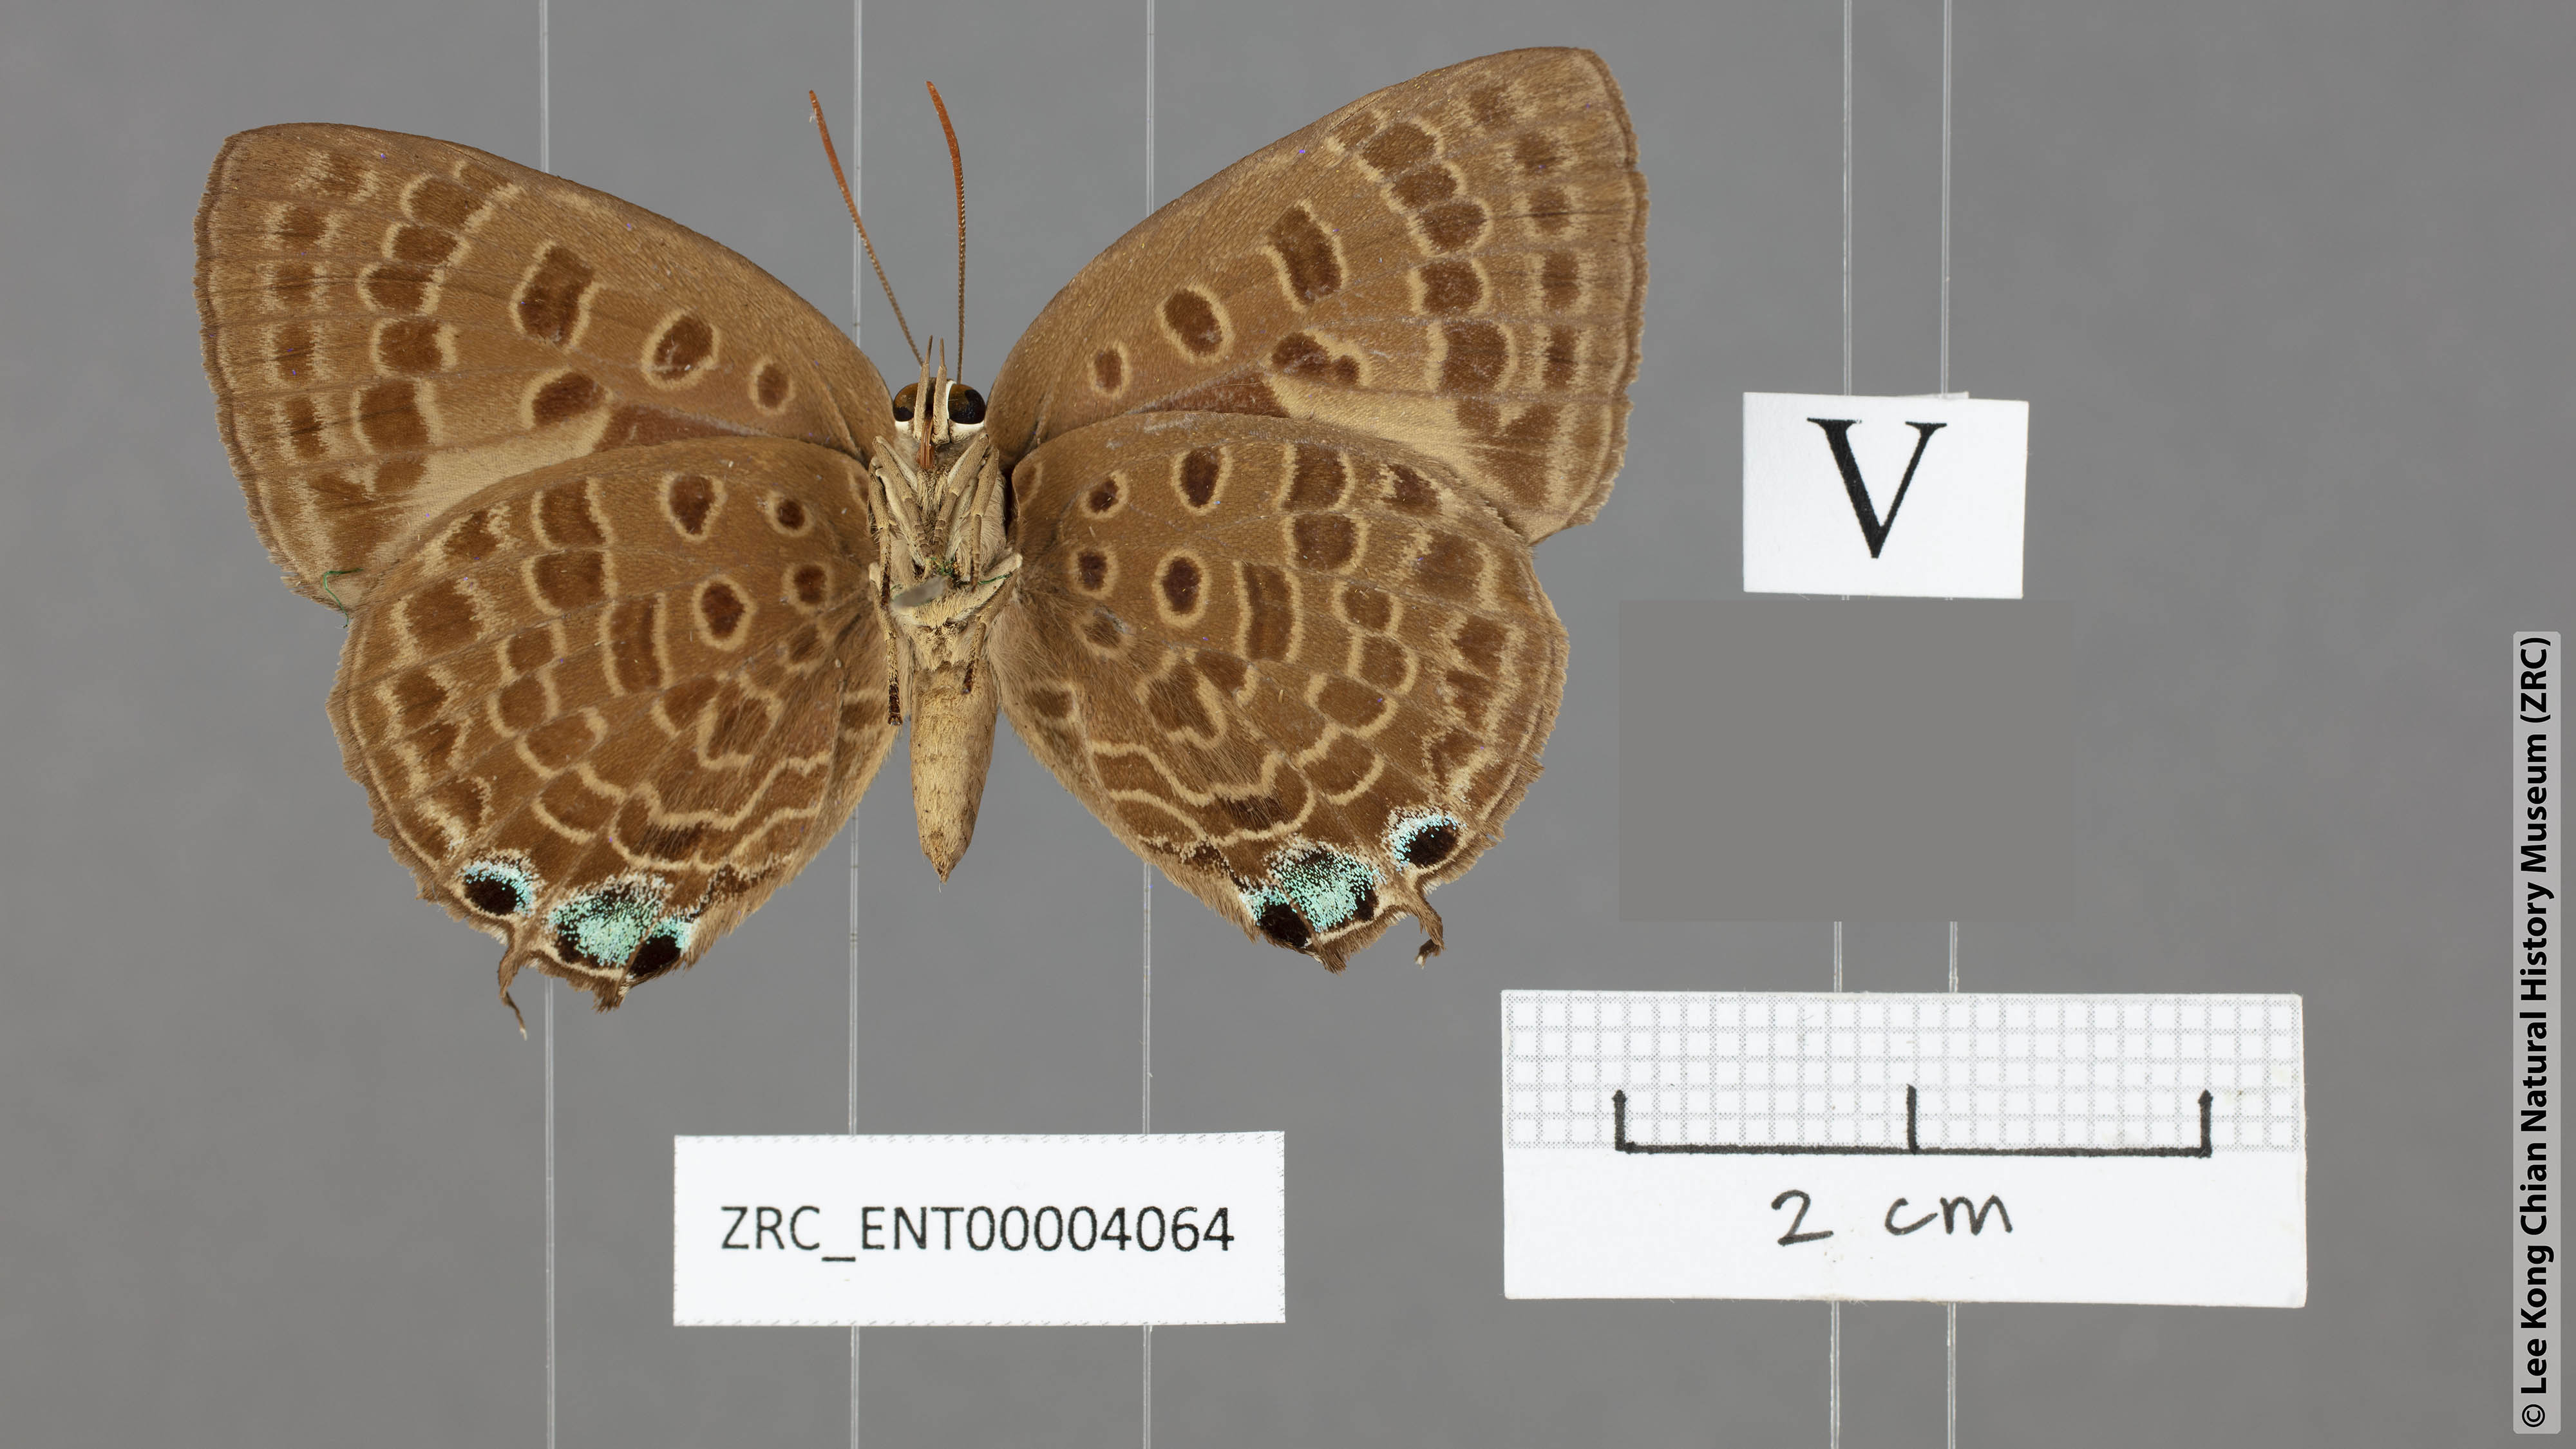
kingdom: Animalia
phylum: Arthropoda
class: Insecta
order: Lepidoptera
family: Lycaenidae
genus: Arhopala
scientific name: Arhopala vihara
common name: Large spotted oakblue
